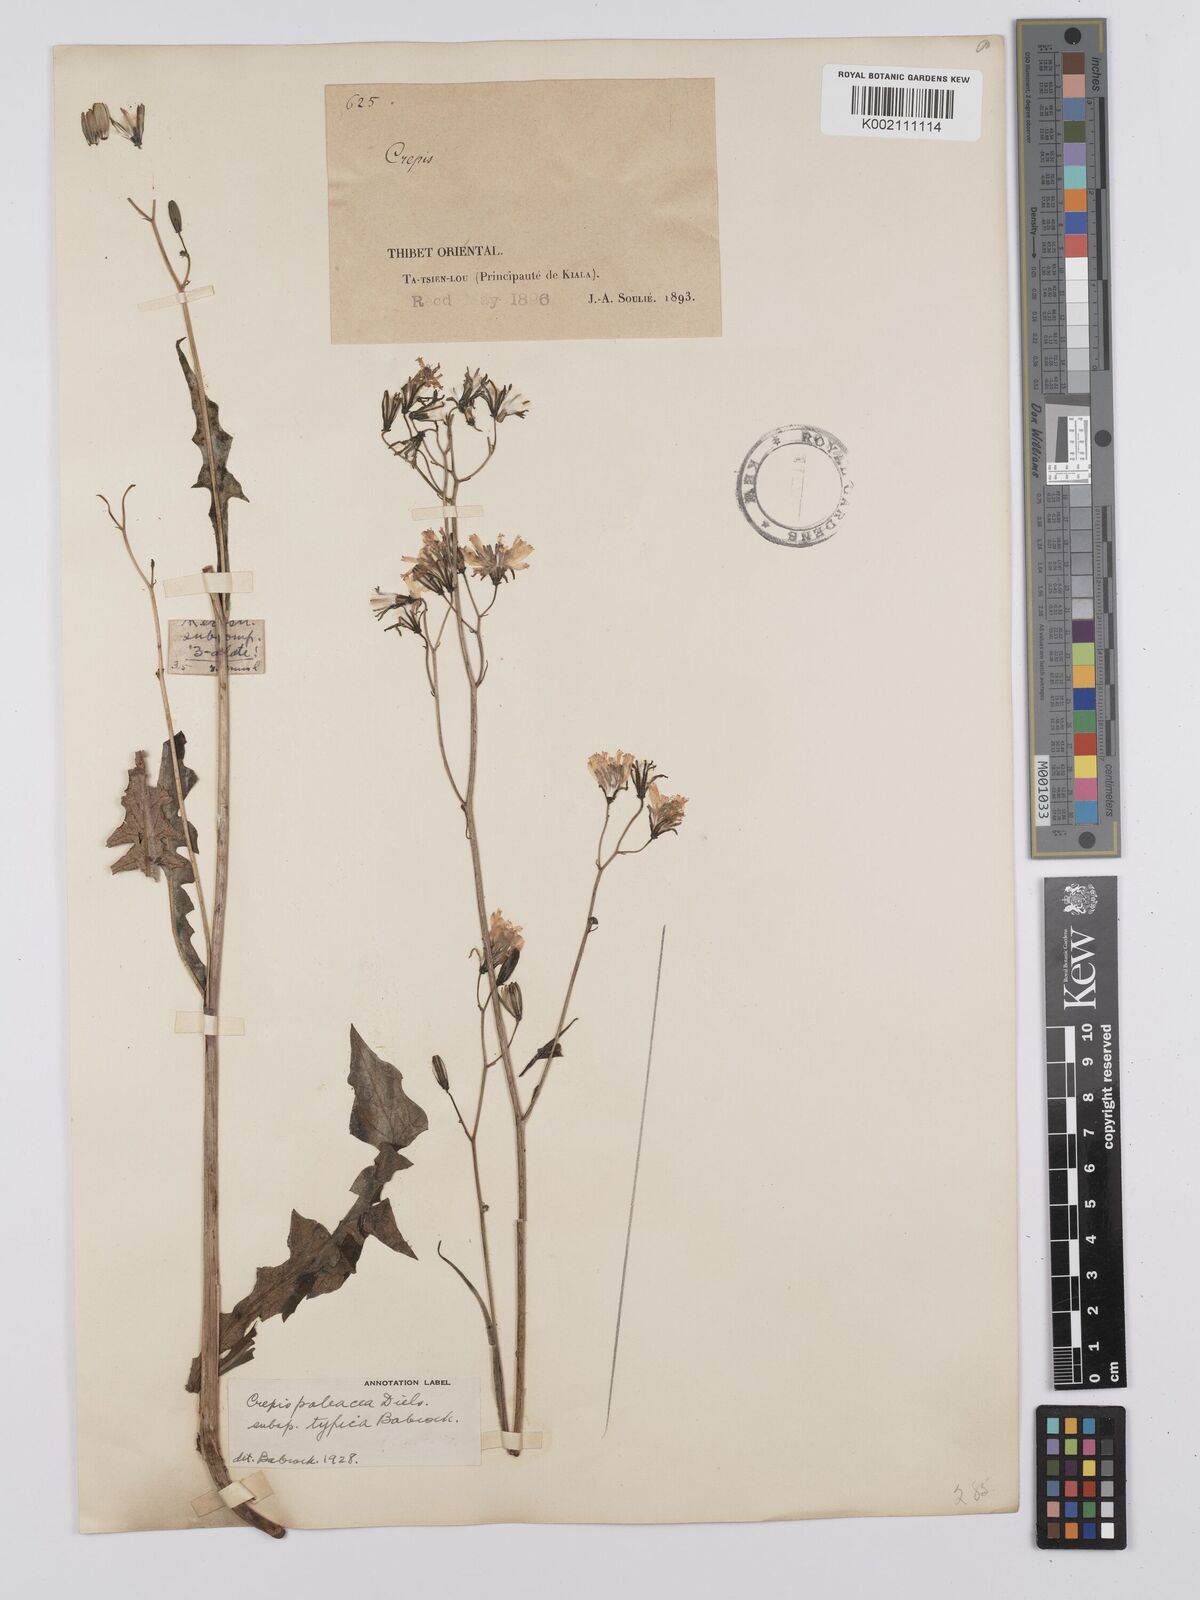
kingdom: Plantae
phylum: Tracheophyta
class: Magnoliopsida
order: Asterales
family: Asteraceae
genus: Youngia
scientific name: Youngia paleacea
